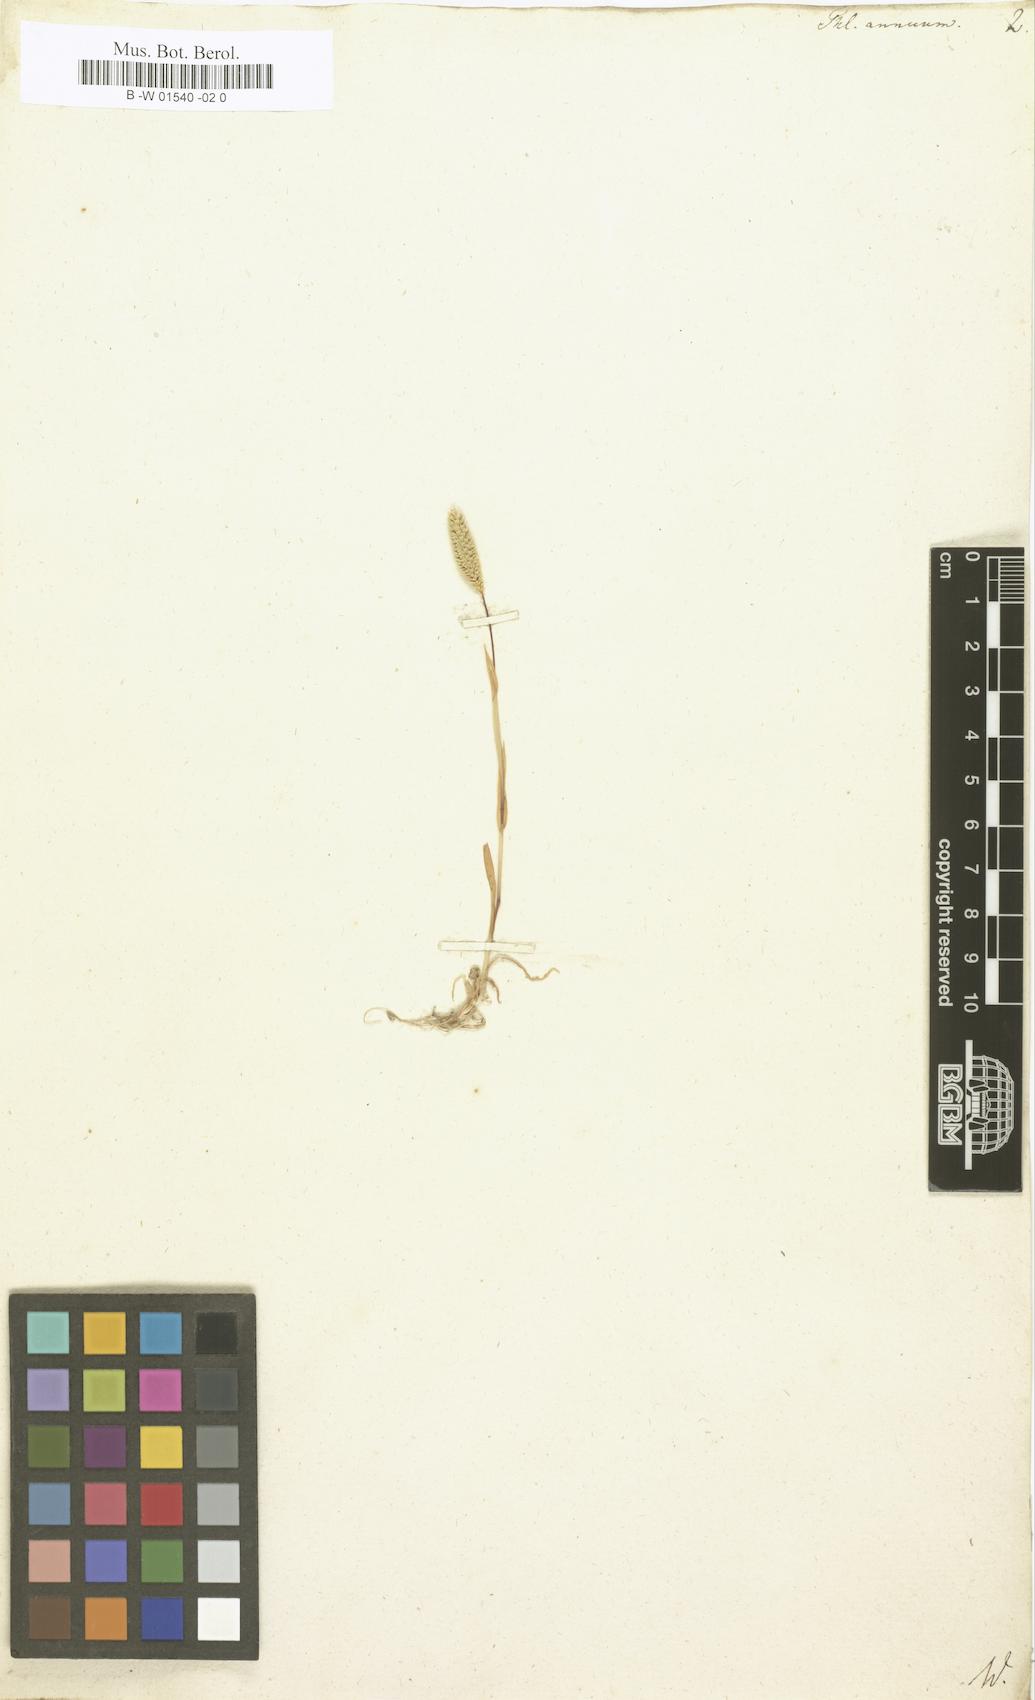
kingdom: Plantae
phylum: Tracheophyta
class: Liliopsida
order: Poales
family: Poaceae
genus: Phleum
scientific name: Phleum paniculatum
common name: British timothy
